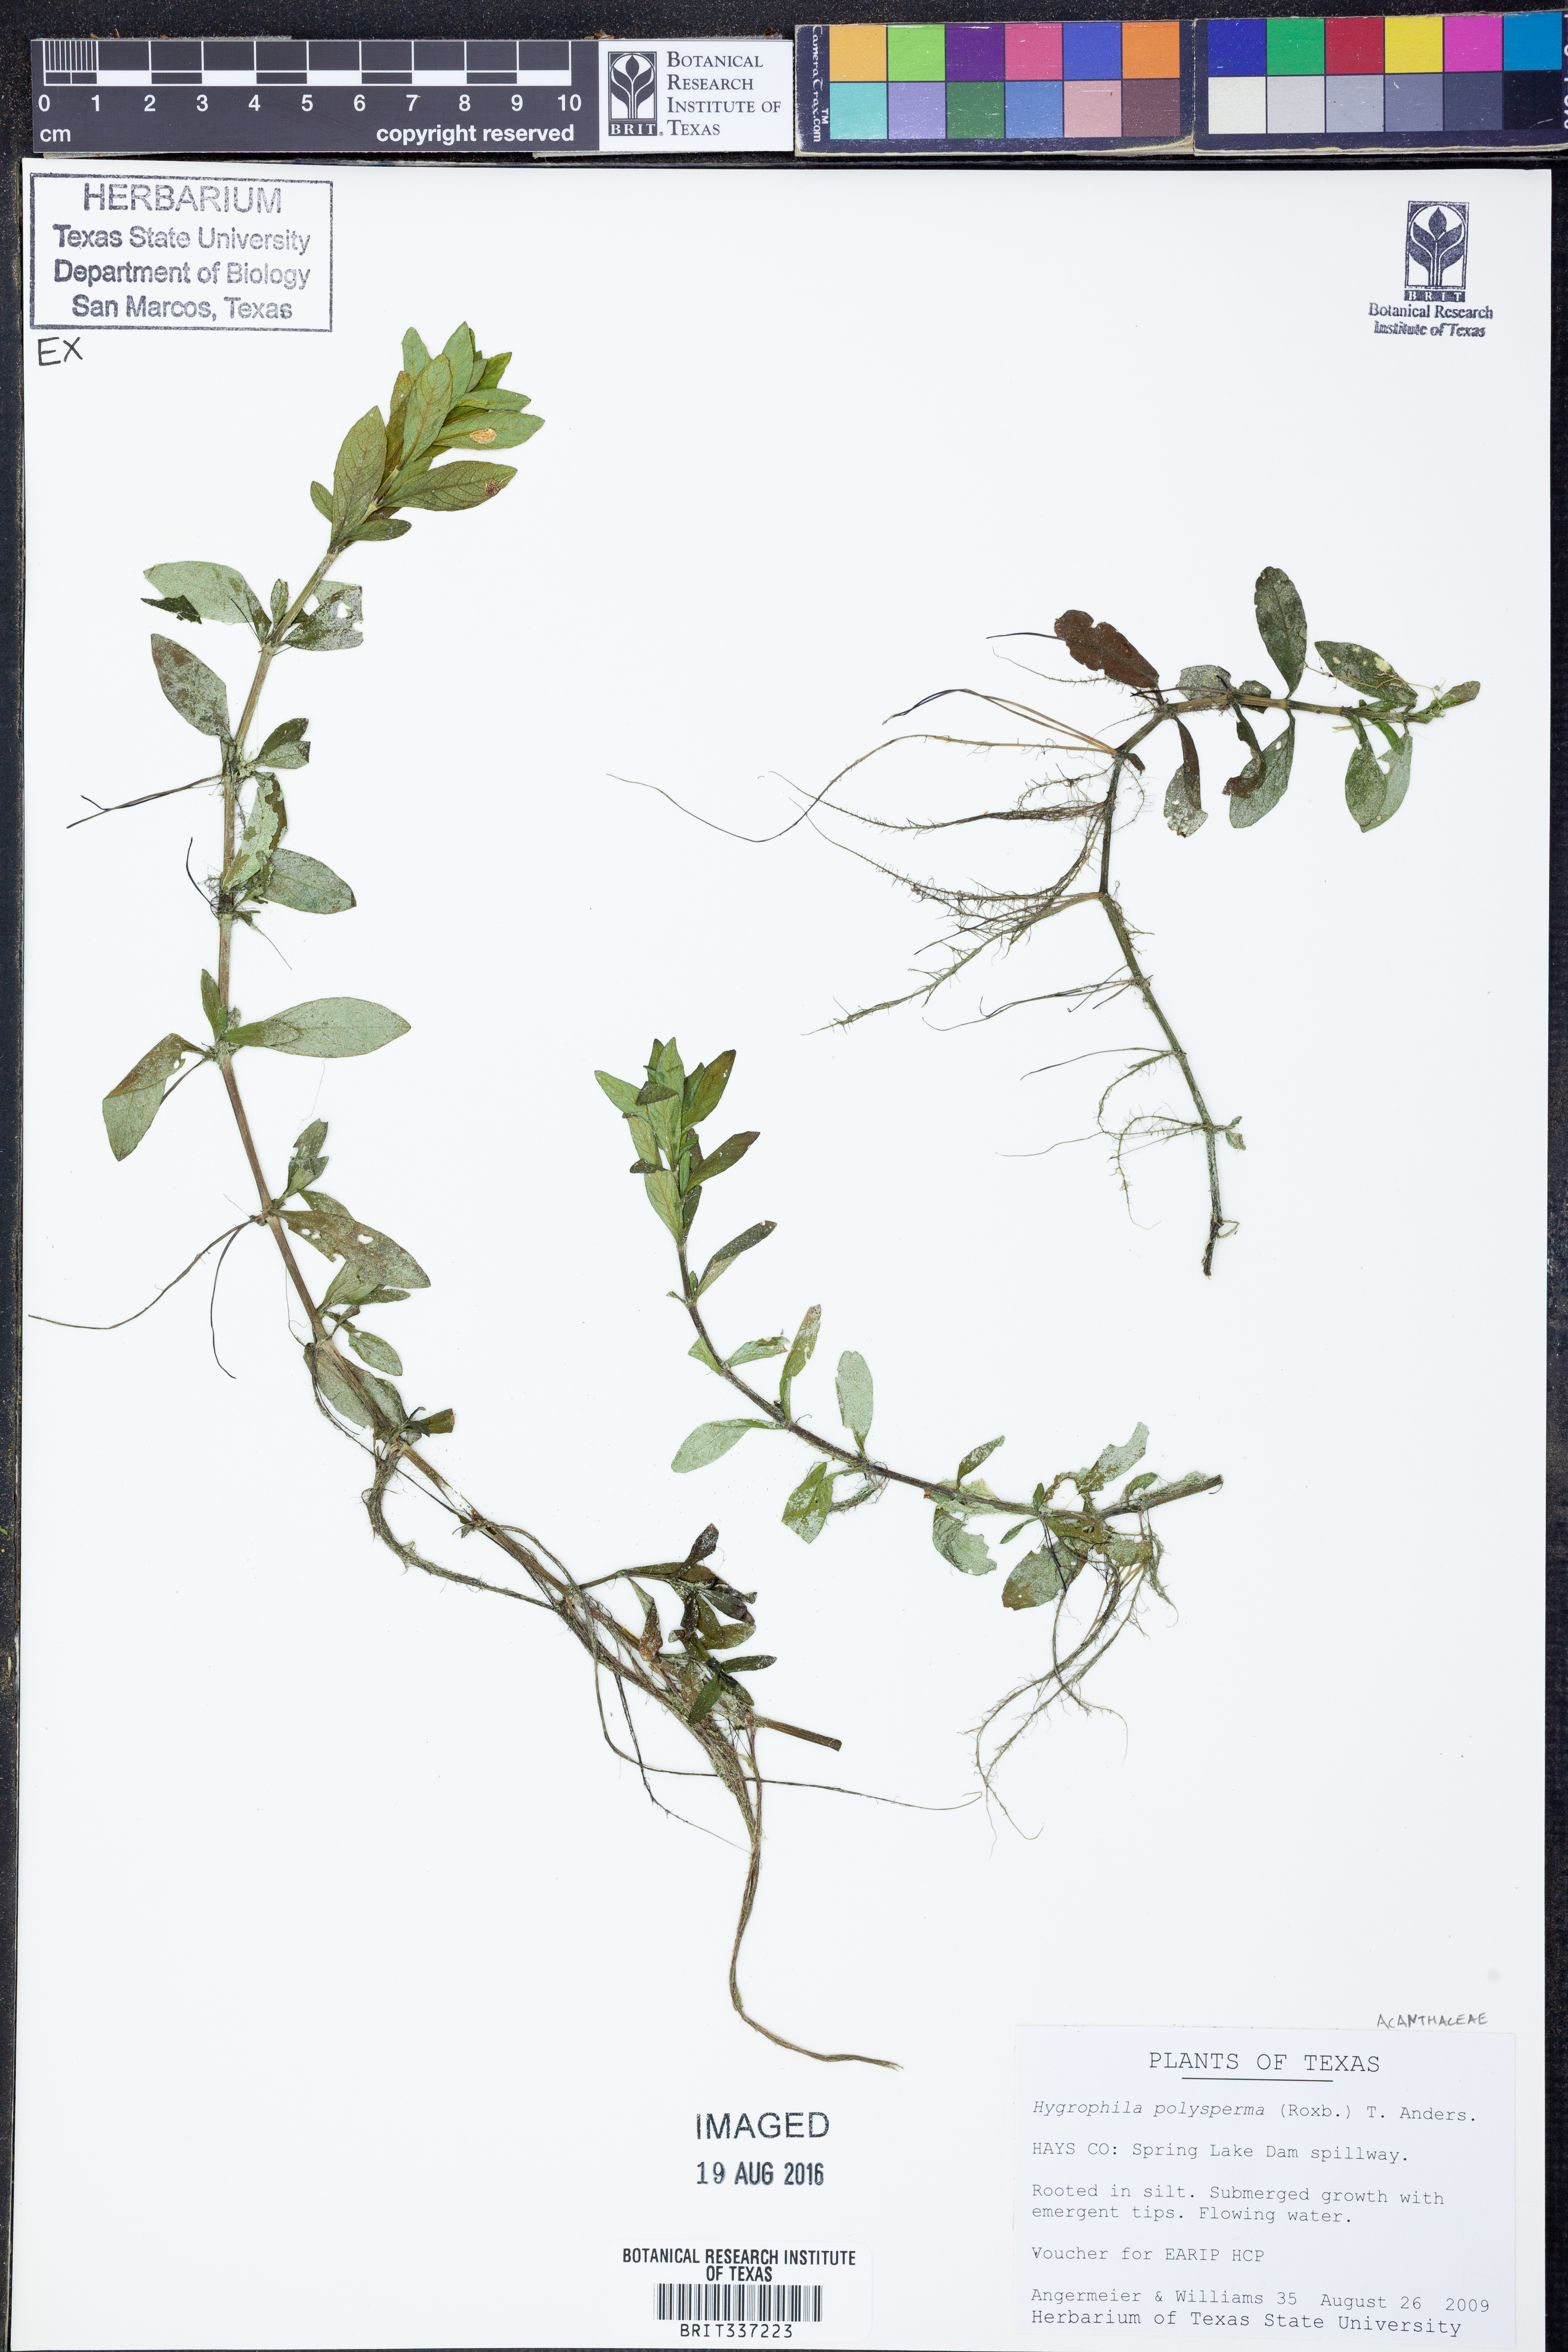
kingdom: Plantae
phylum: Tracheophyta
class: Magnoliopsida
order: Lamiales
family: Acanthaceae
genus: Hygrophila
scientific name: Hygrophila polysperma
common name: Indian swampweed
